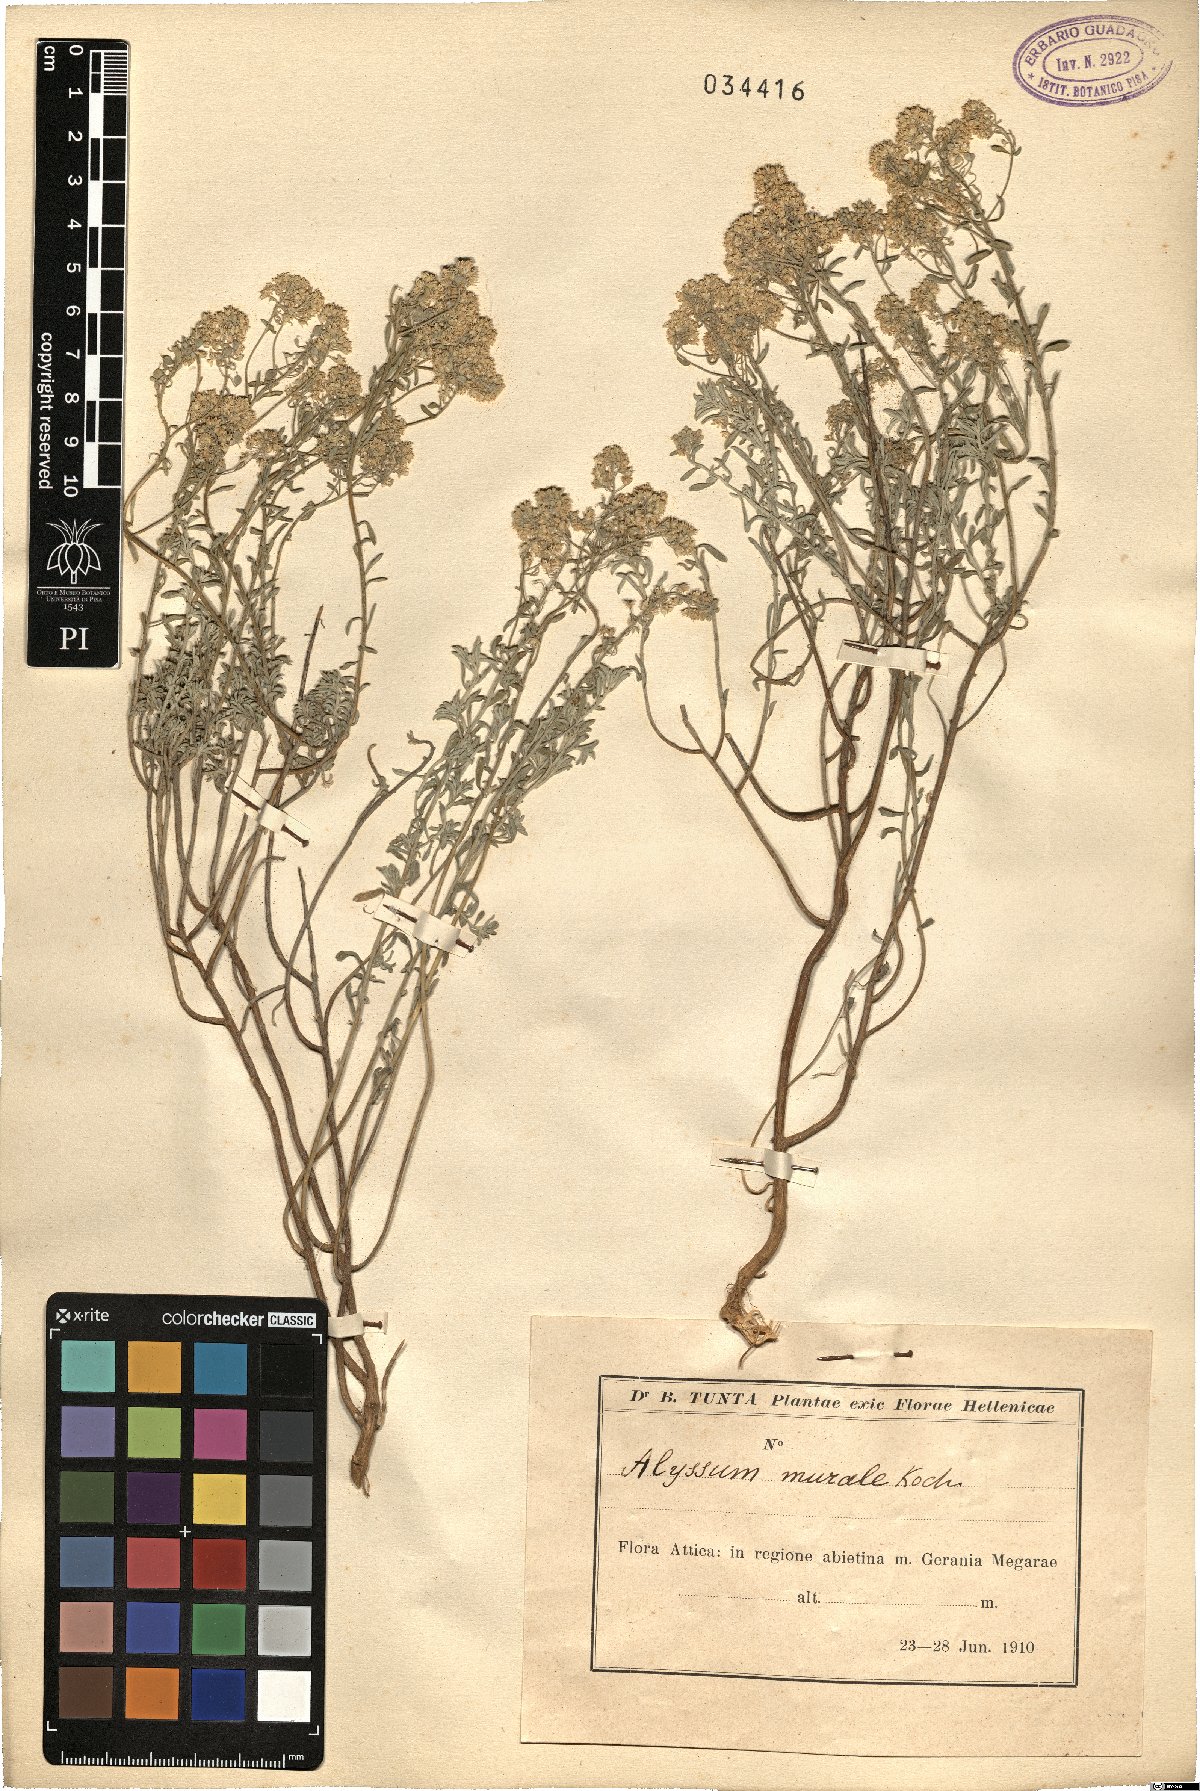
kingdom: Plantae
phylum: Tracheophyta
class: Magnoliopsida
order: Brassicales
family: Brassicaceae
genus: Odontarrhena
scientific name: Odontarrhena muralis
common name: Rock alyssum
